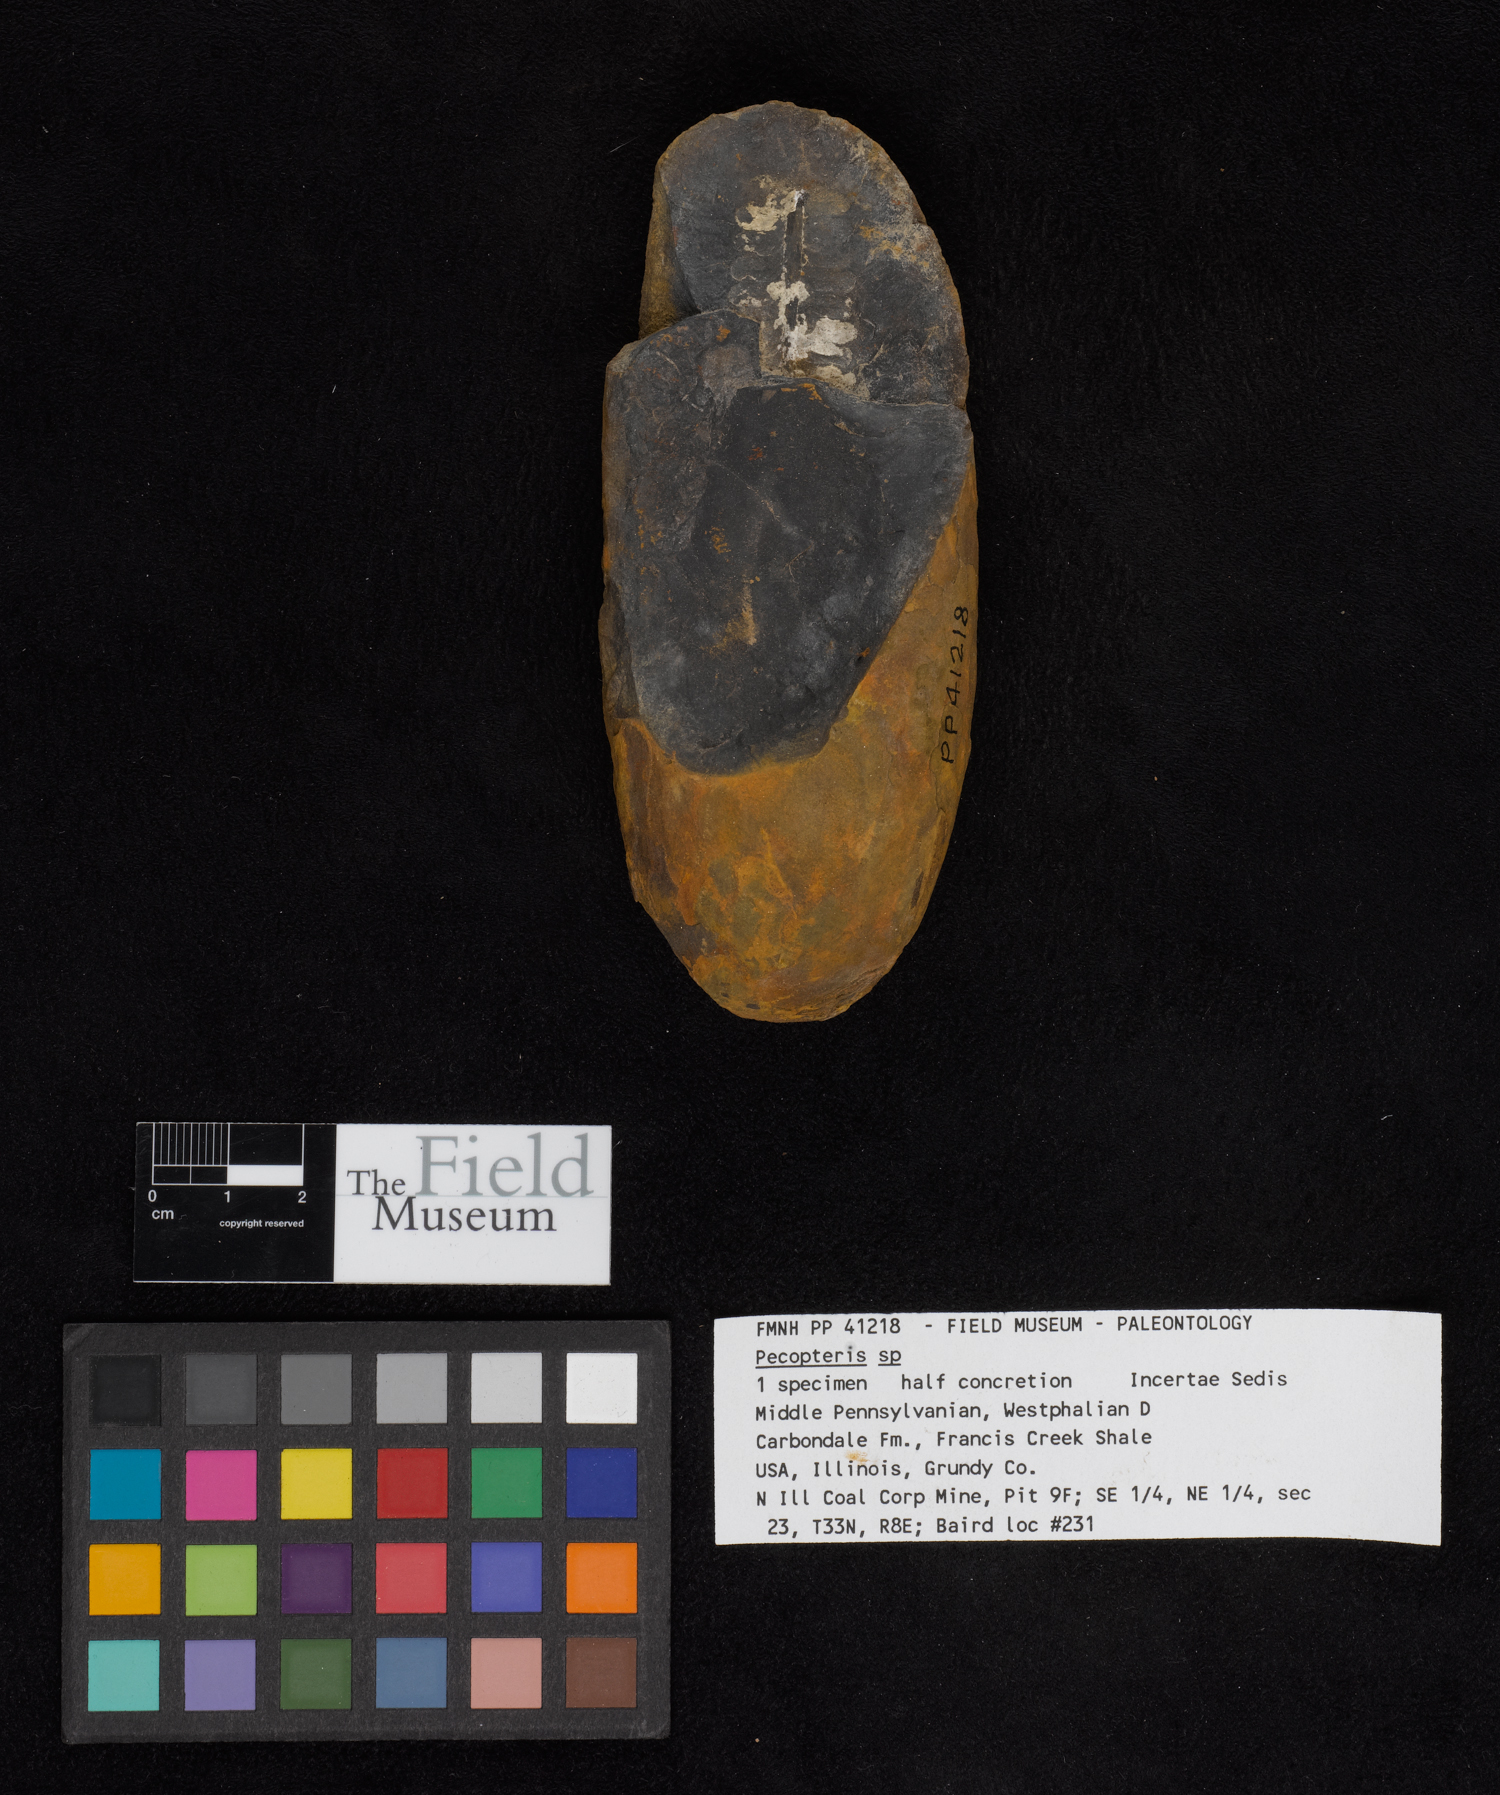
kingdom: Plantae
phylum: Tracheophyta
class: Polypodiopsida
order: Marattiales
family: Asterothecaceae
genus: Pecopteris
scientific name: Pecopteris
